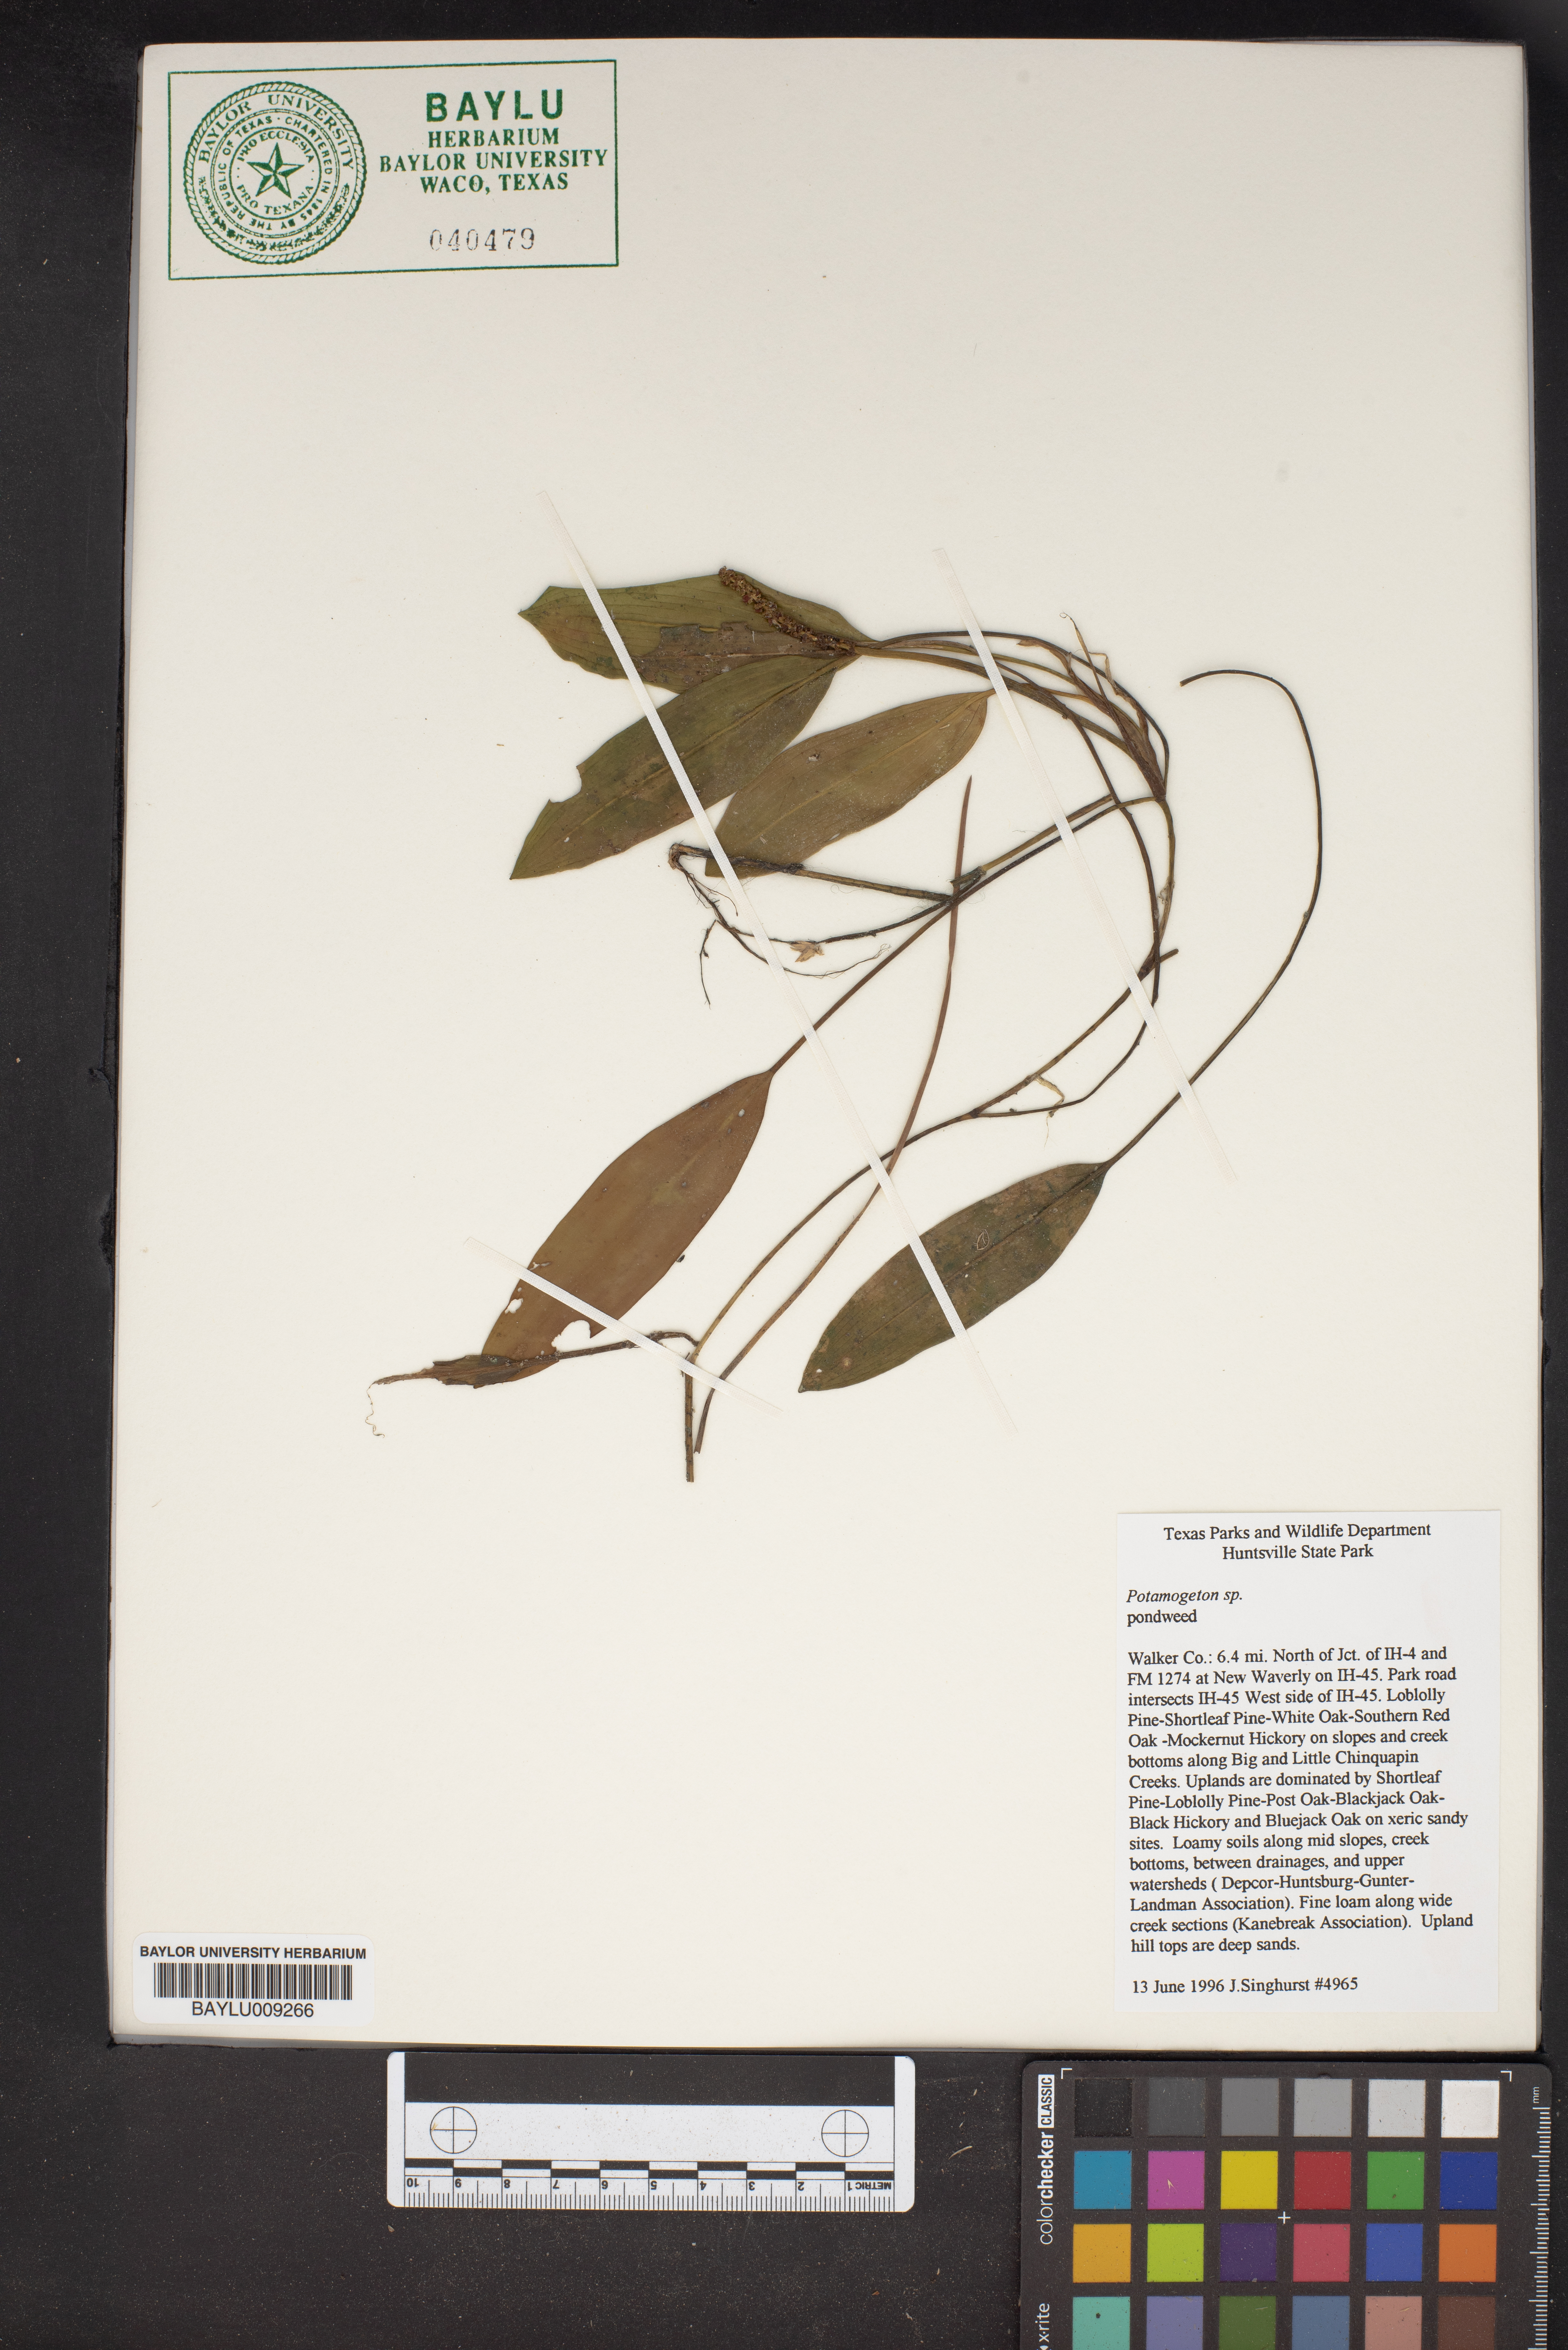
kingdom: Plantae
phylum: Tracheophyta
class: Liliopsida
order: Alismatales
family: Potamogetonaceae
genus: Potamogeton
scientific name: Potamogeton
